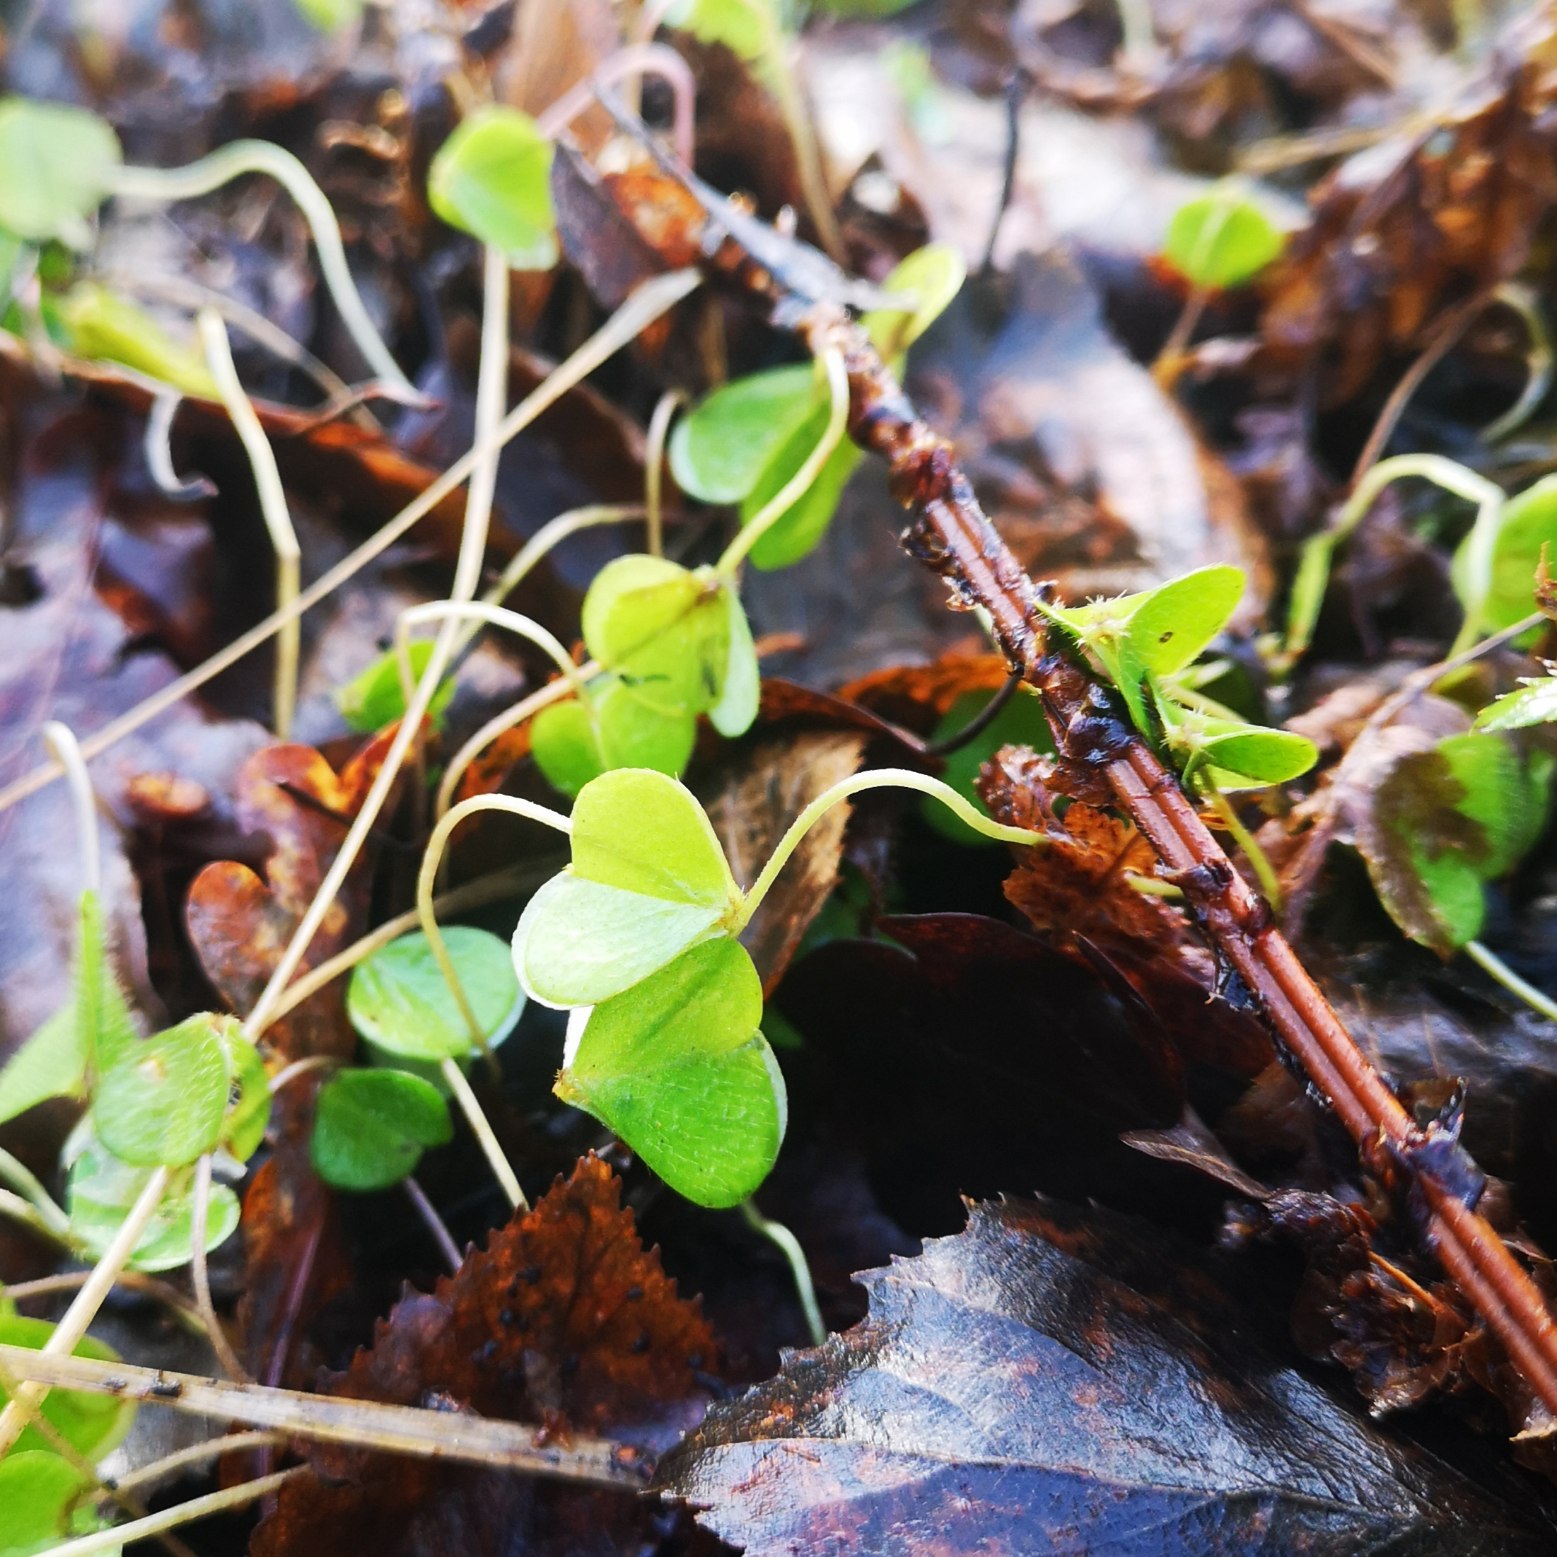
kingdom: Plantae
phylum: Tracheophyta
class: Magnoliopsida
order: Oxalidales
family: Oxalidaceae
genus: Oxalis
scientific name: Oxalis acetosella
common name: Skovsyre
